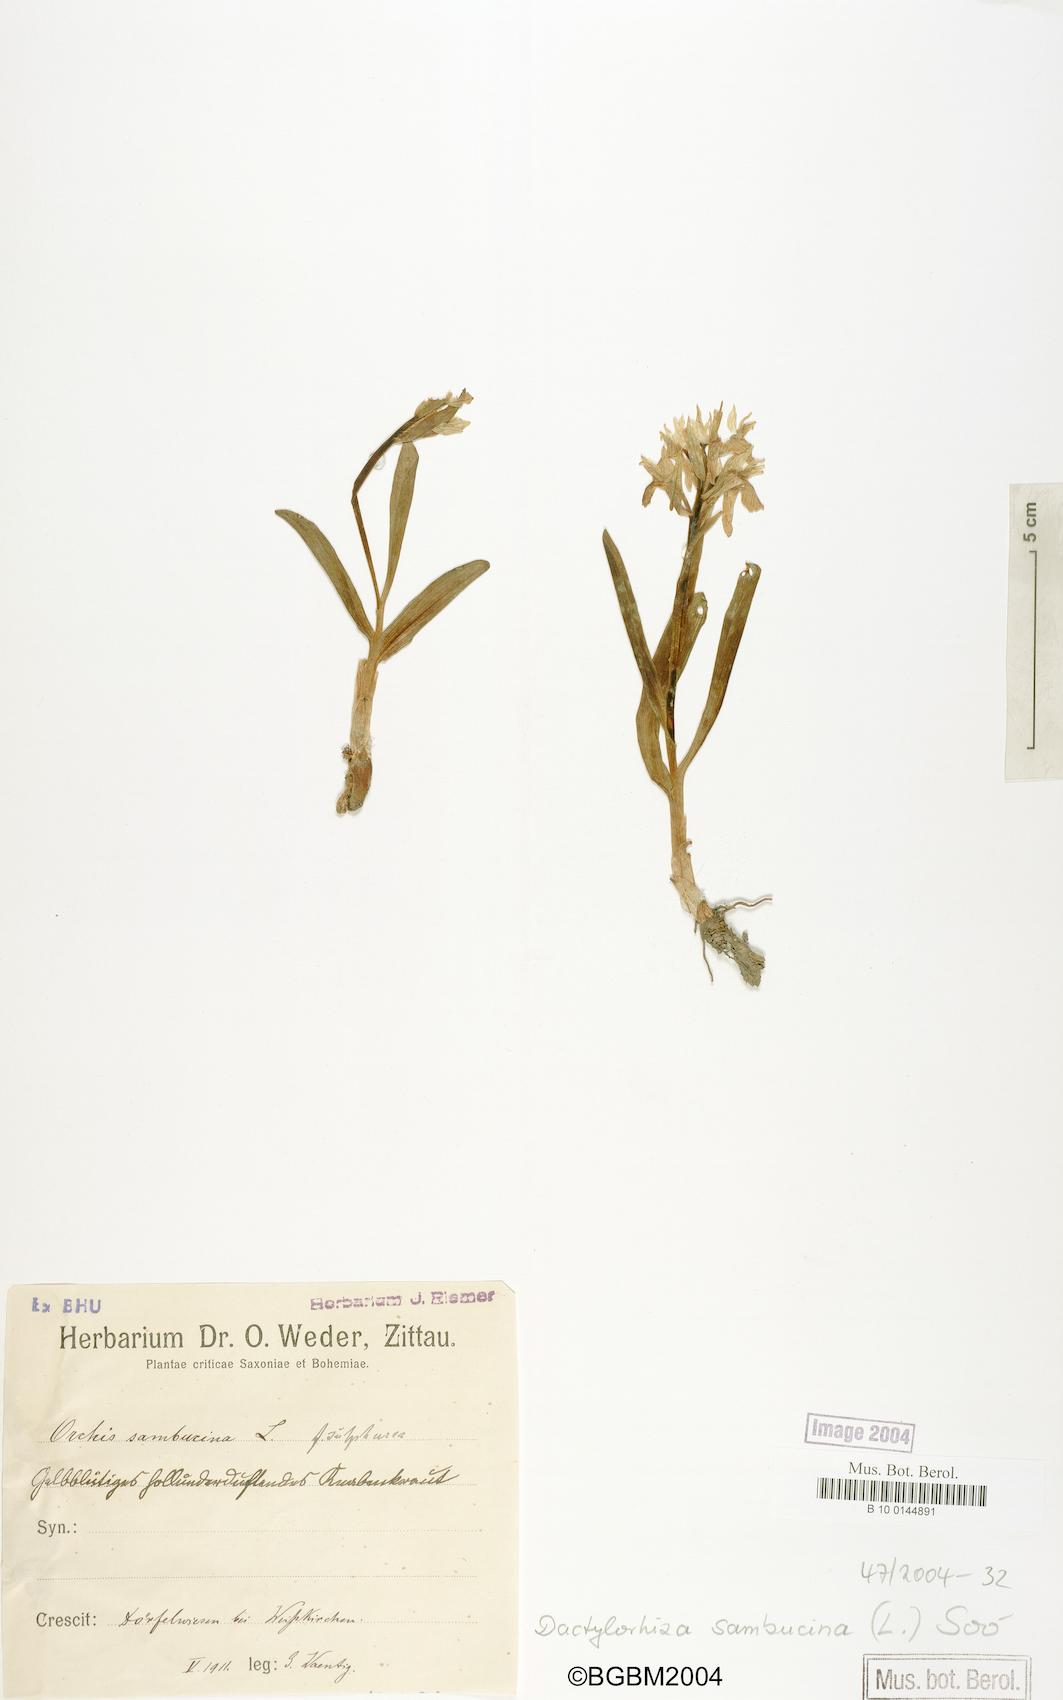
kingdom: Plantae
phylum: Tracheophyta
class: Liliopsida
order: Asparagales
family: Orchidaceae
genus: Dactylorhiza
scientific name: Dactylorhiza sambucina
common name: Elder-flowered orchid
